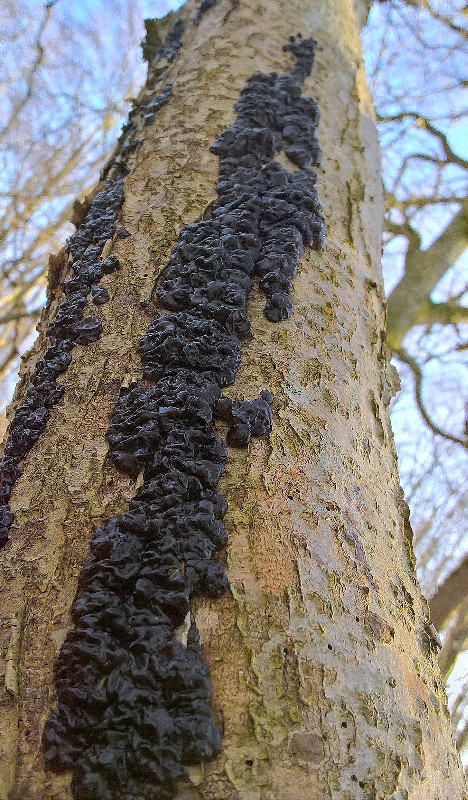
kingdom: Fungi
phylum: Basidiomycota
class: Agaricomycetes
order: Auriculariales
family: Auriculariaceae
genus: Exidia
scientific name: Exidia nigricans
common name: almindelig bævretop
